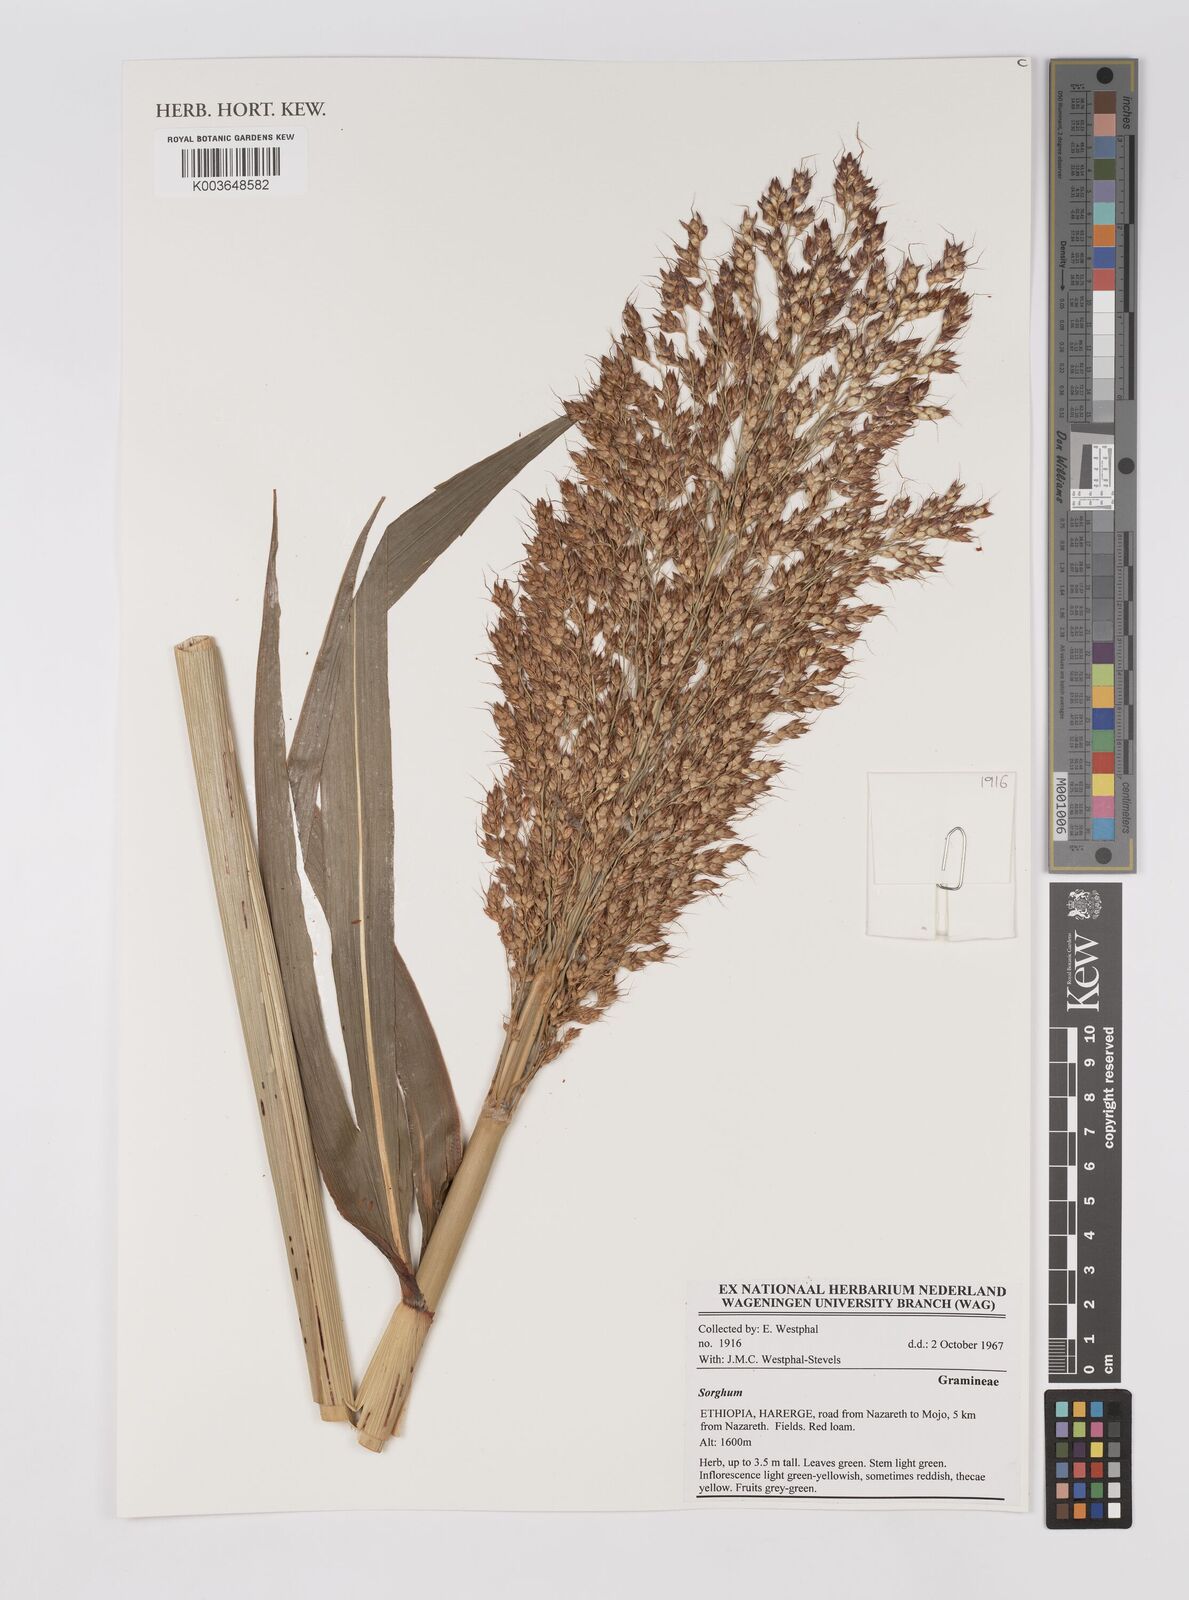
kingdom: Plantae
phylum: Tracheophyta
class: Liliopsida
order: Poales
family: Poaceae
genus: Sorghum
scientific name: Sorghum
